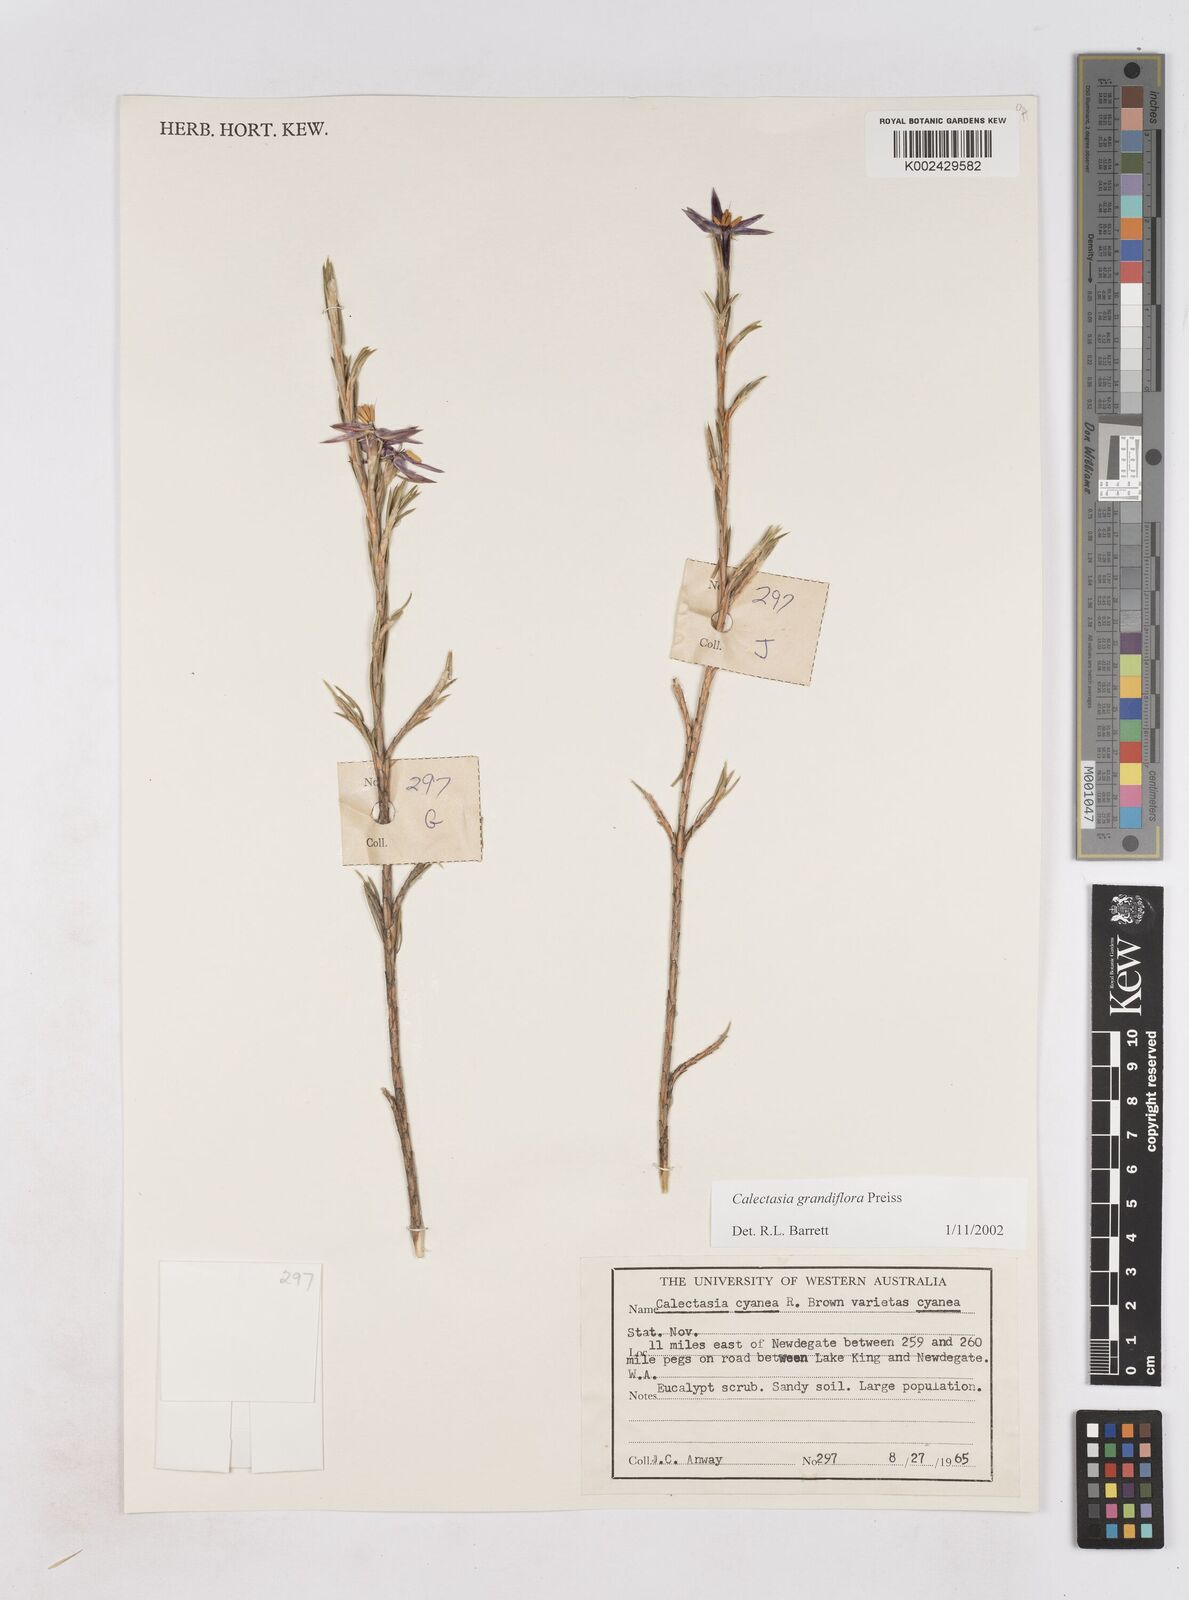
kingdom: Plantae
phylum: Tracheophyta
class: Liliopsida
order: Arecales
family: Dasypogonaceae
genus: Calectasia
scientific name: Calectasia grandiflora
